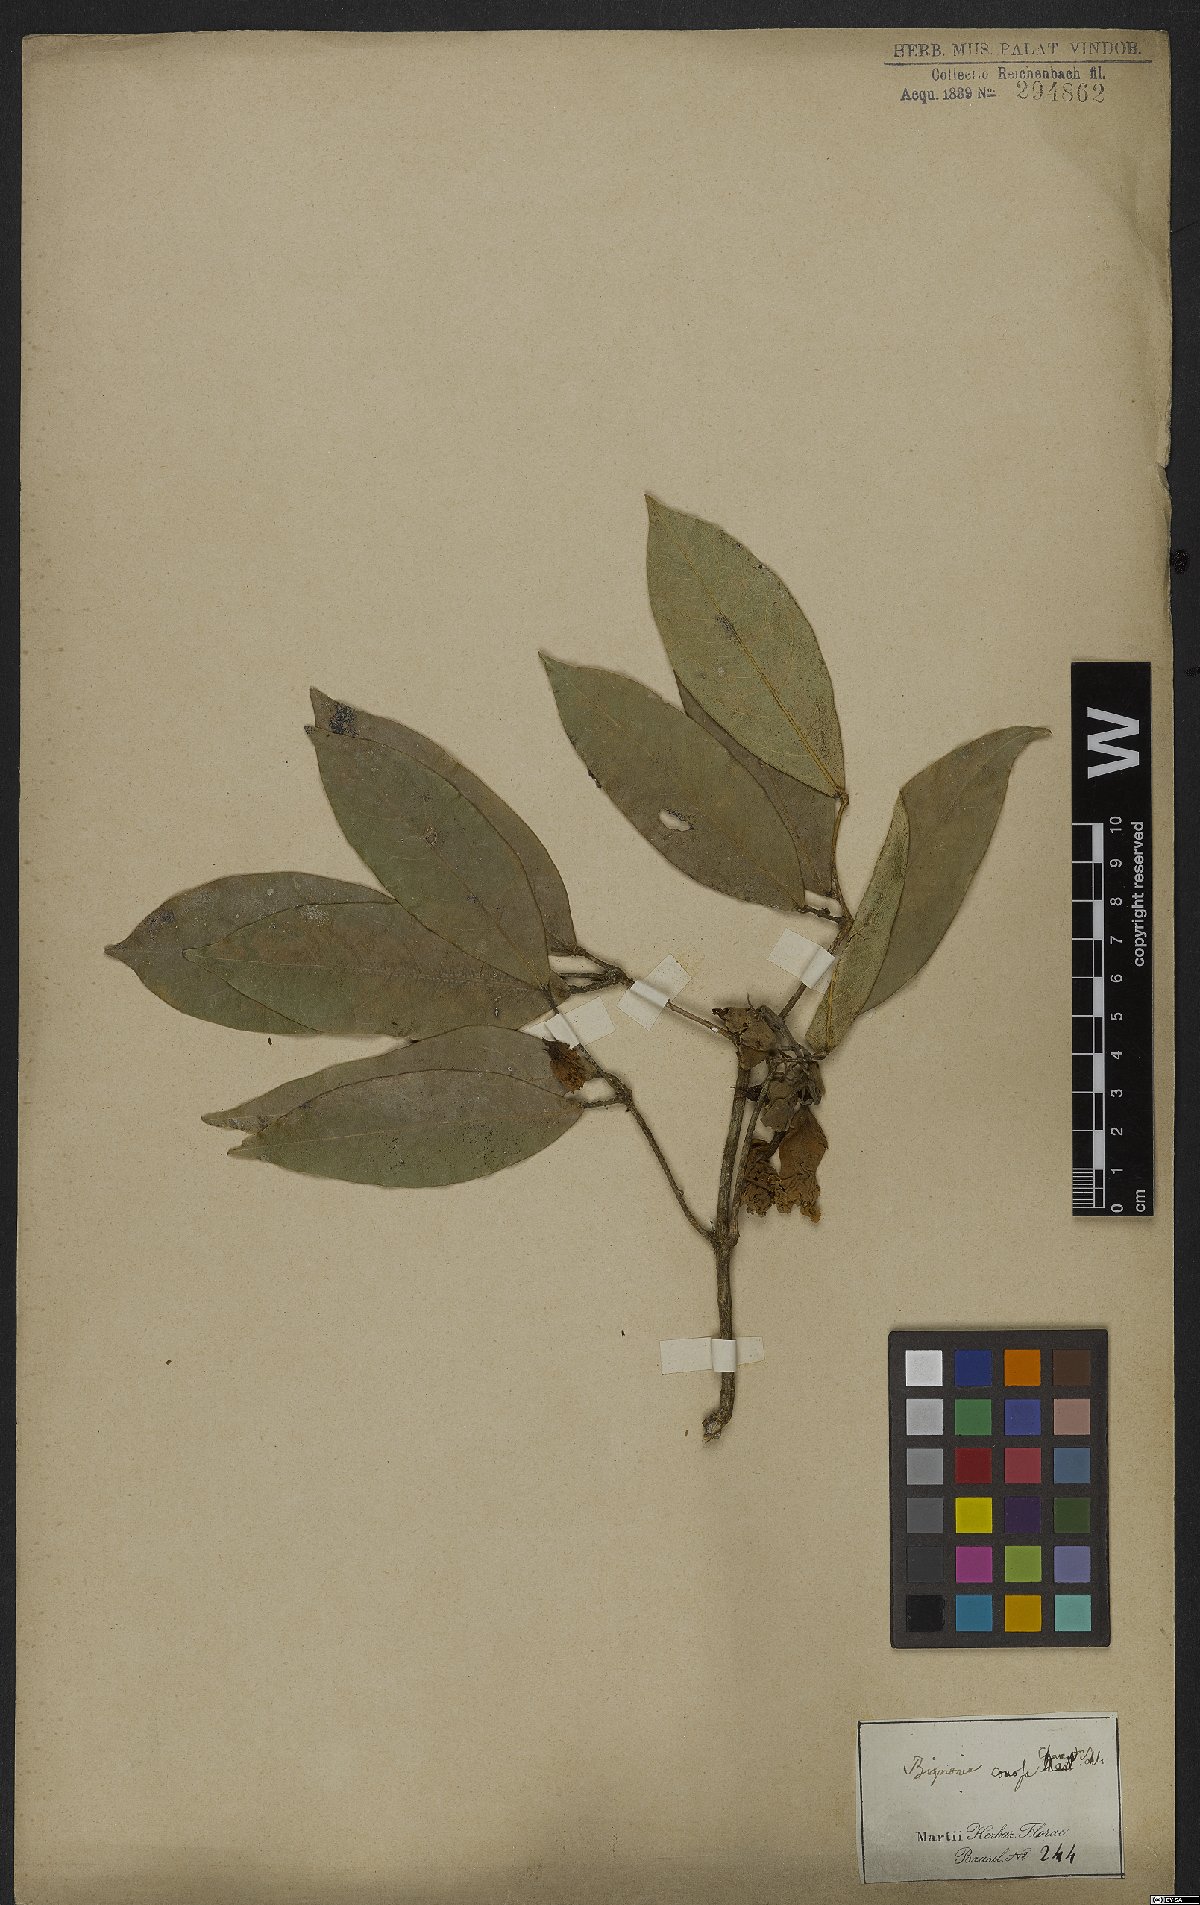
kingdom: Plantae
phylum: Tracheophyta
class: Magnoliopsida
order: Lamiales
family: Bignoniaceae
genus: Adenocalymma
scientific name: Adenocalymma acutissimum
